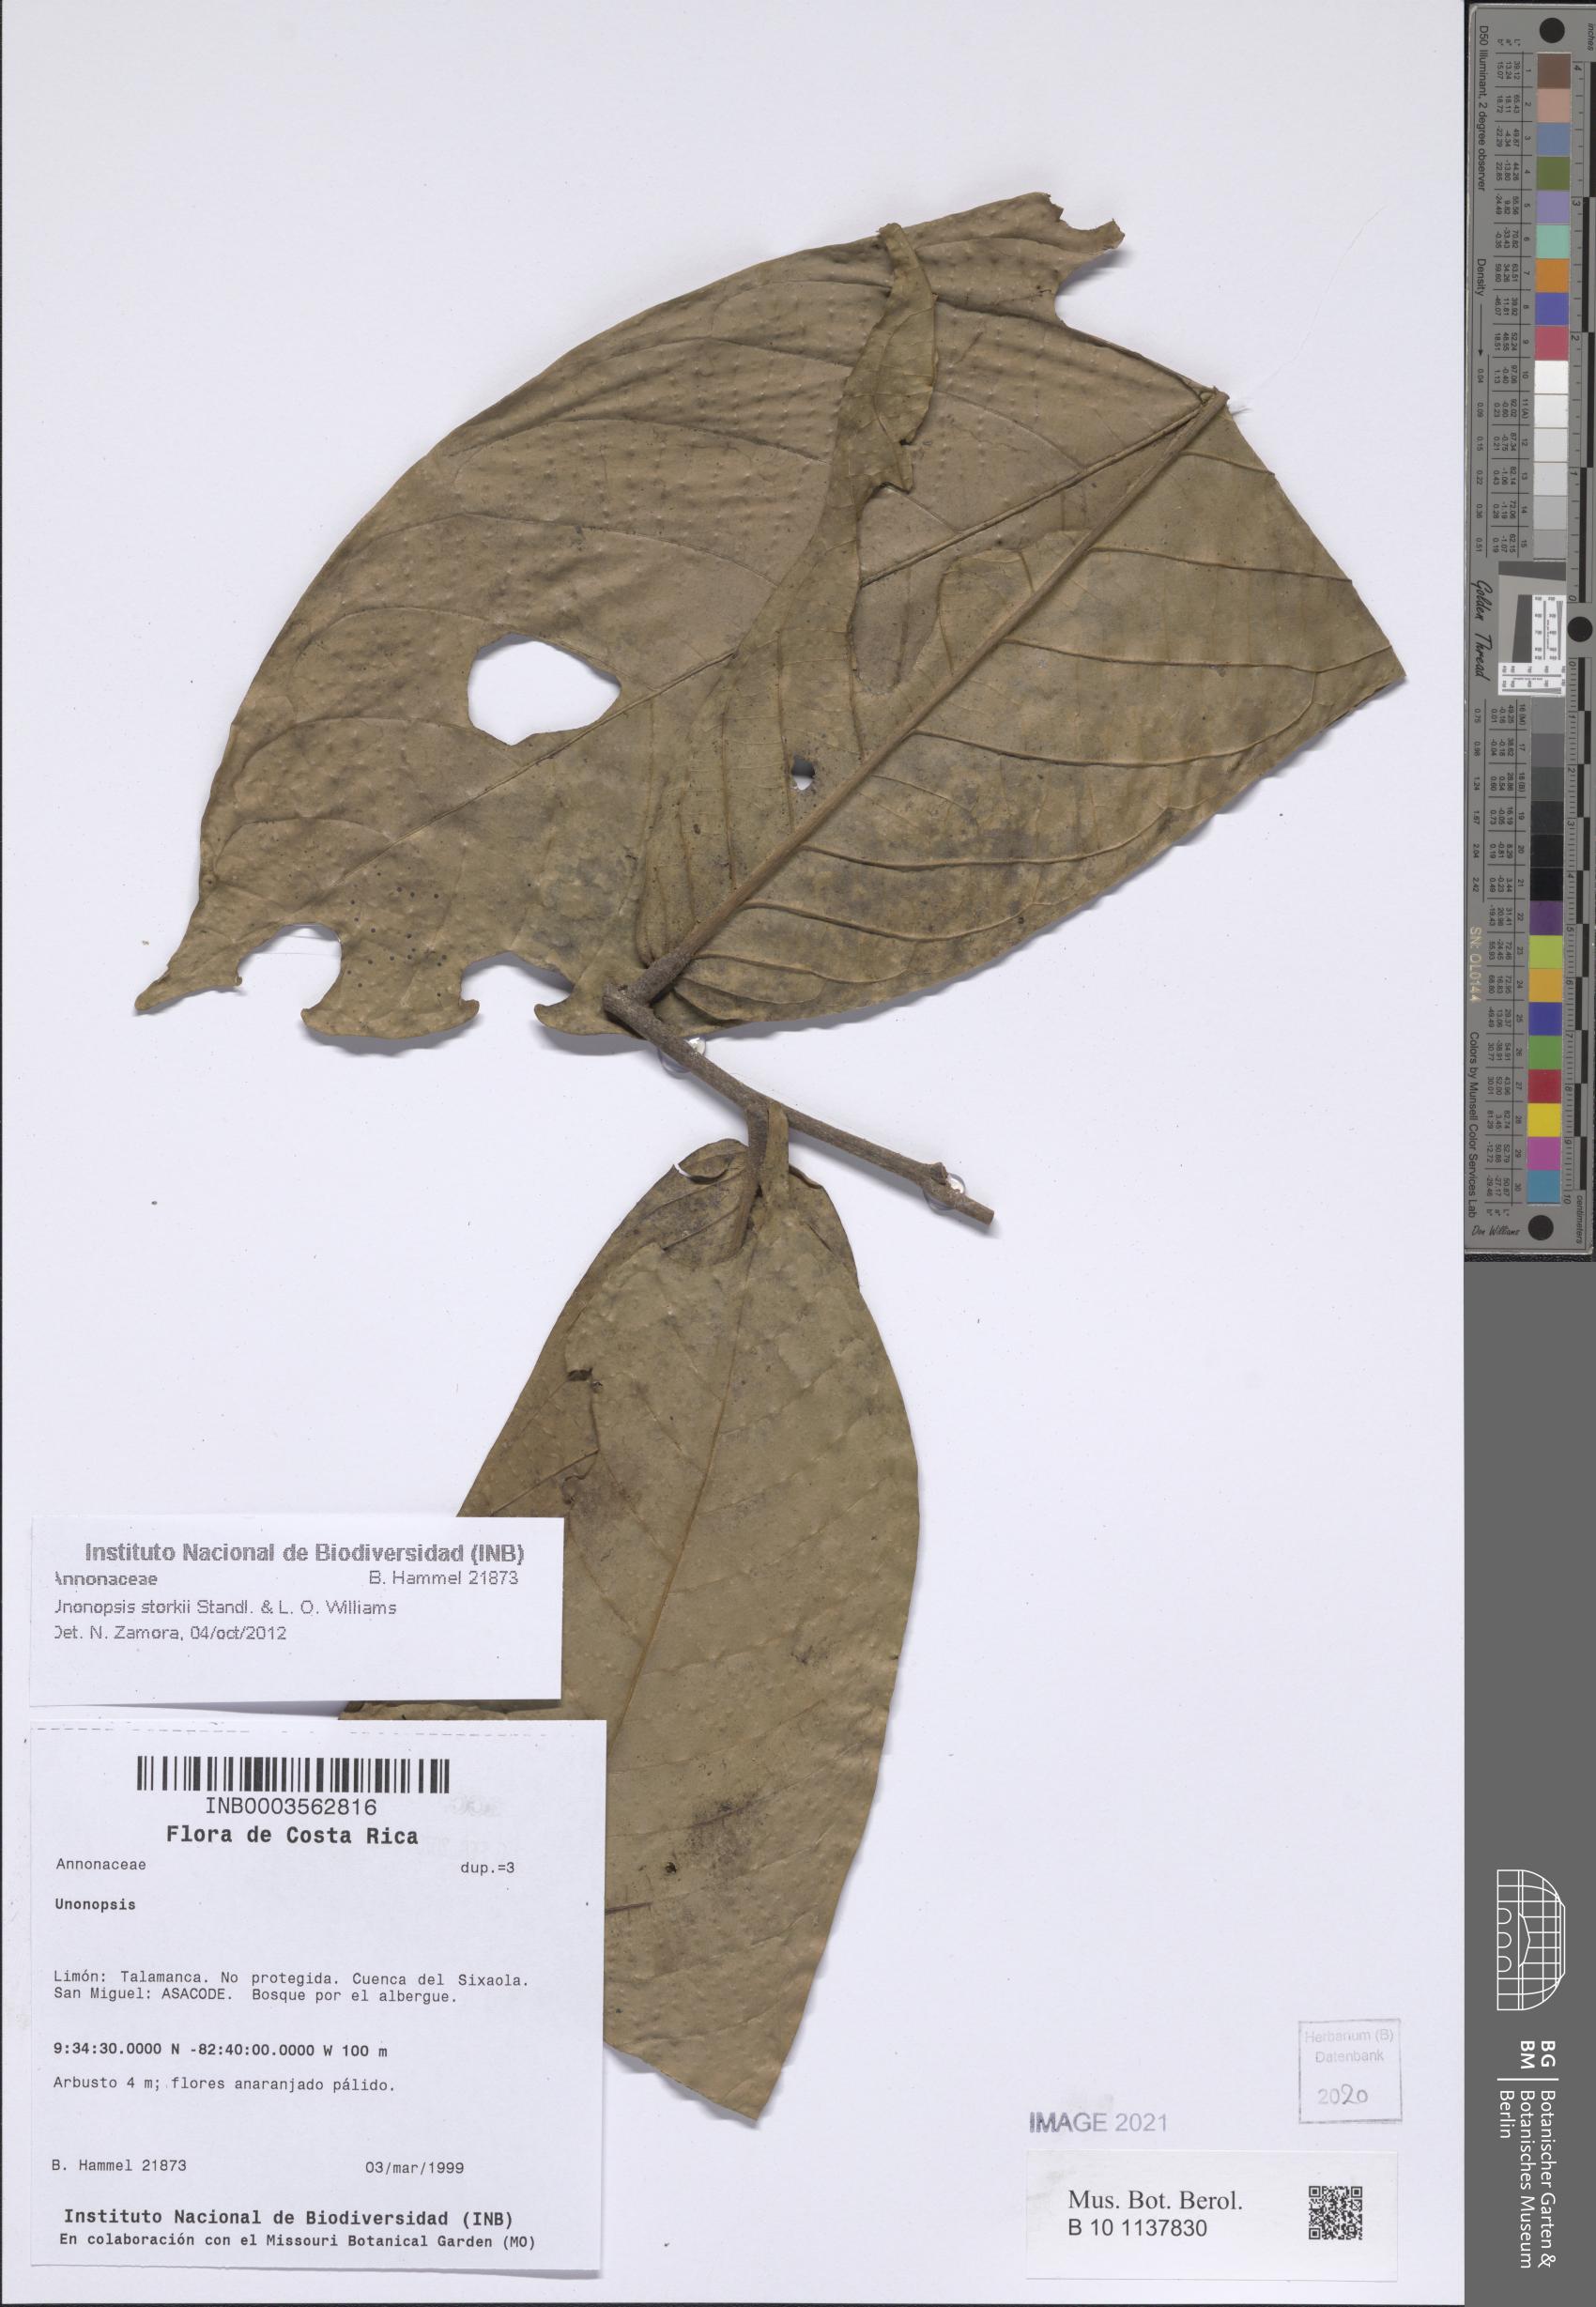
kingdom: Plantae
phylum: Tracheophyta
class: Magnoliopsida
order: Magnoliales
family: Annonaceae
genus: Unonopsis
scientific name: Unonopsis storkii
